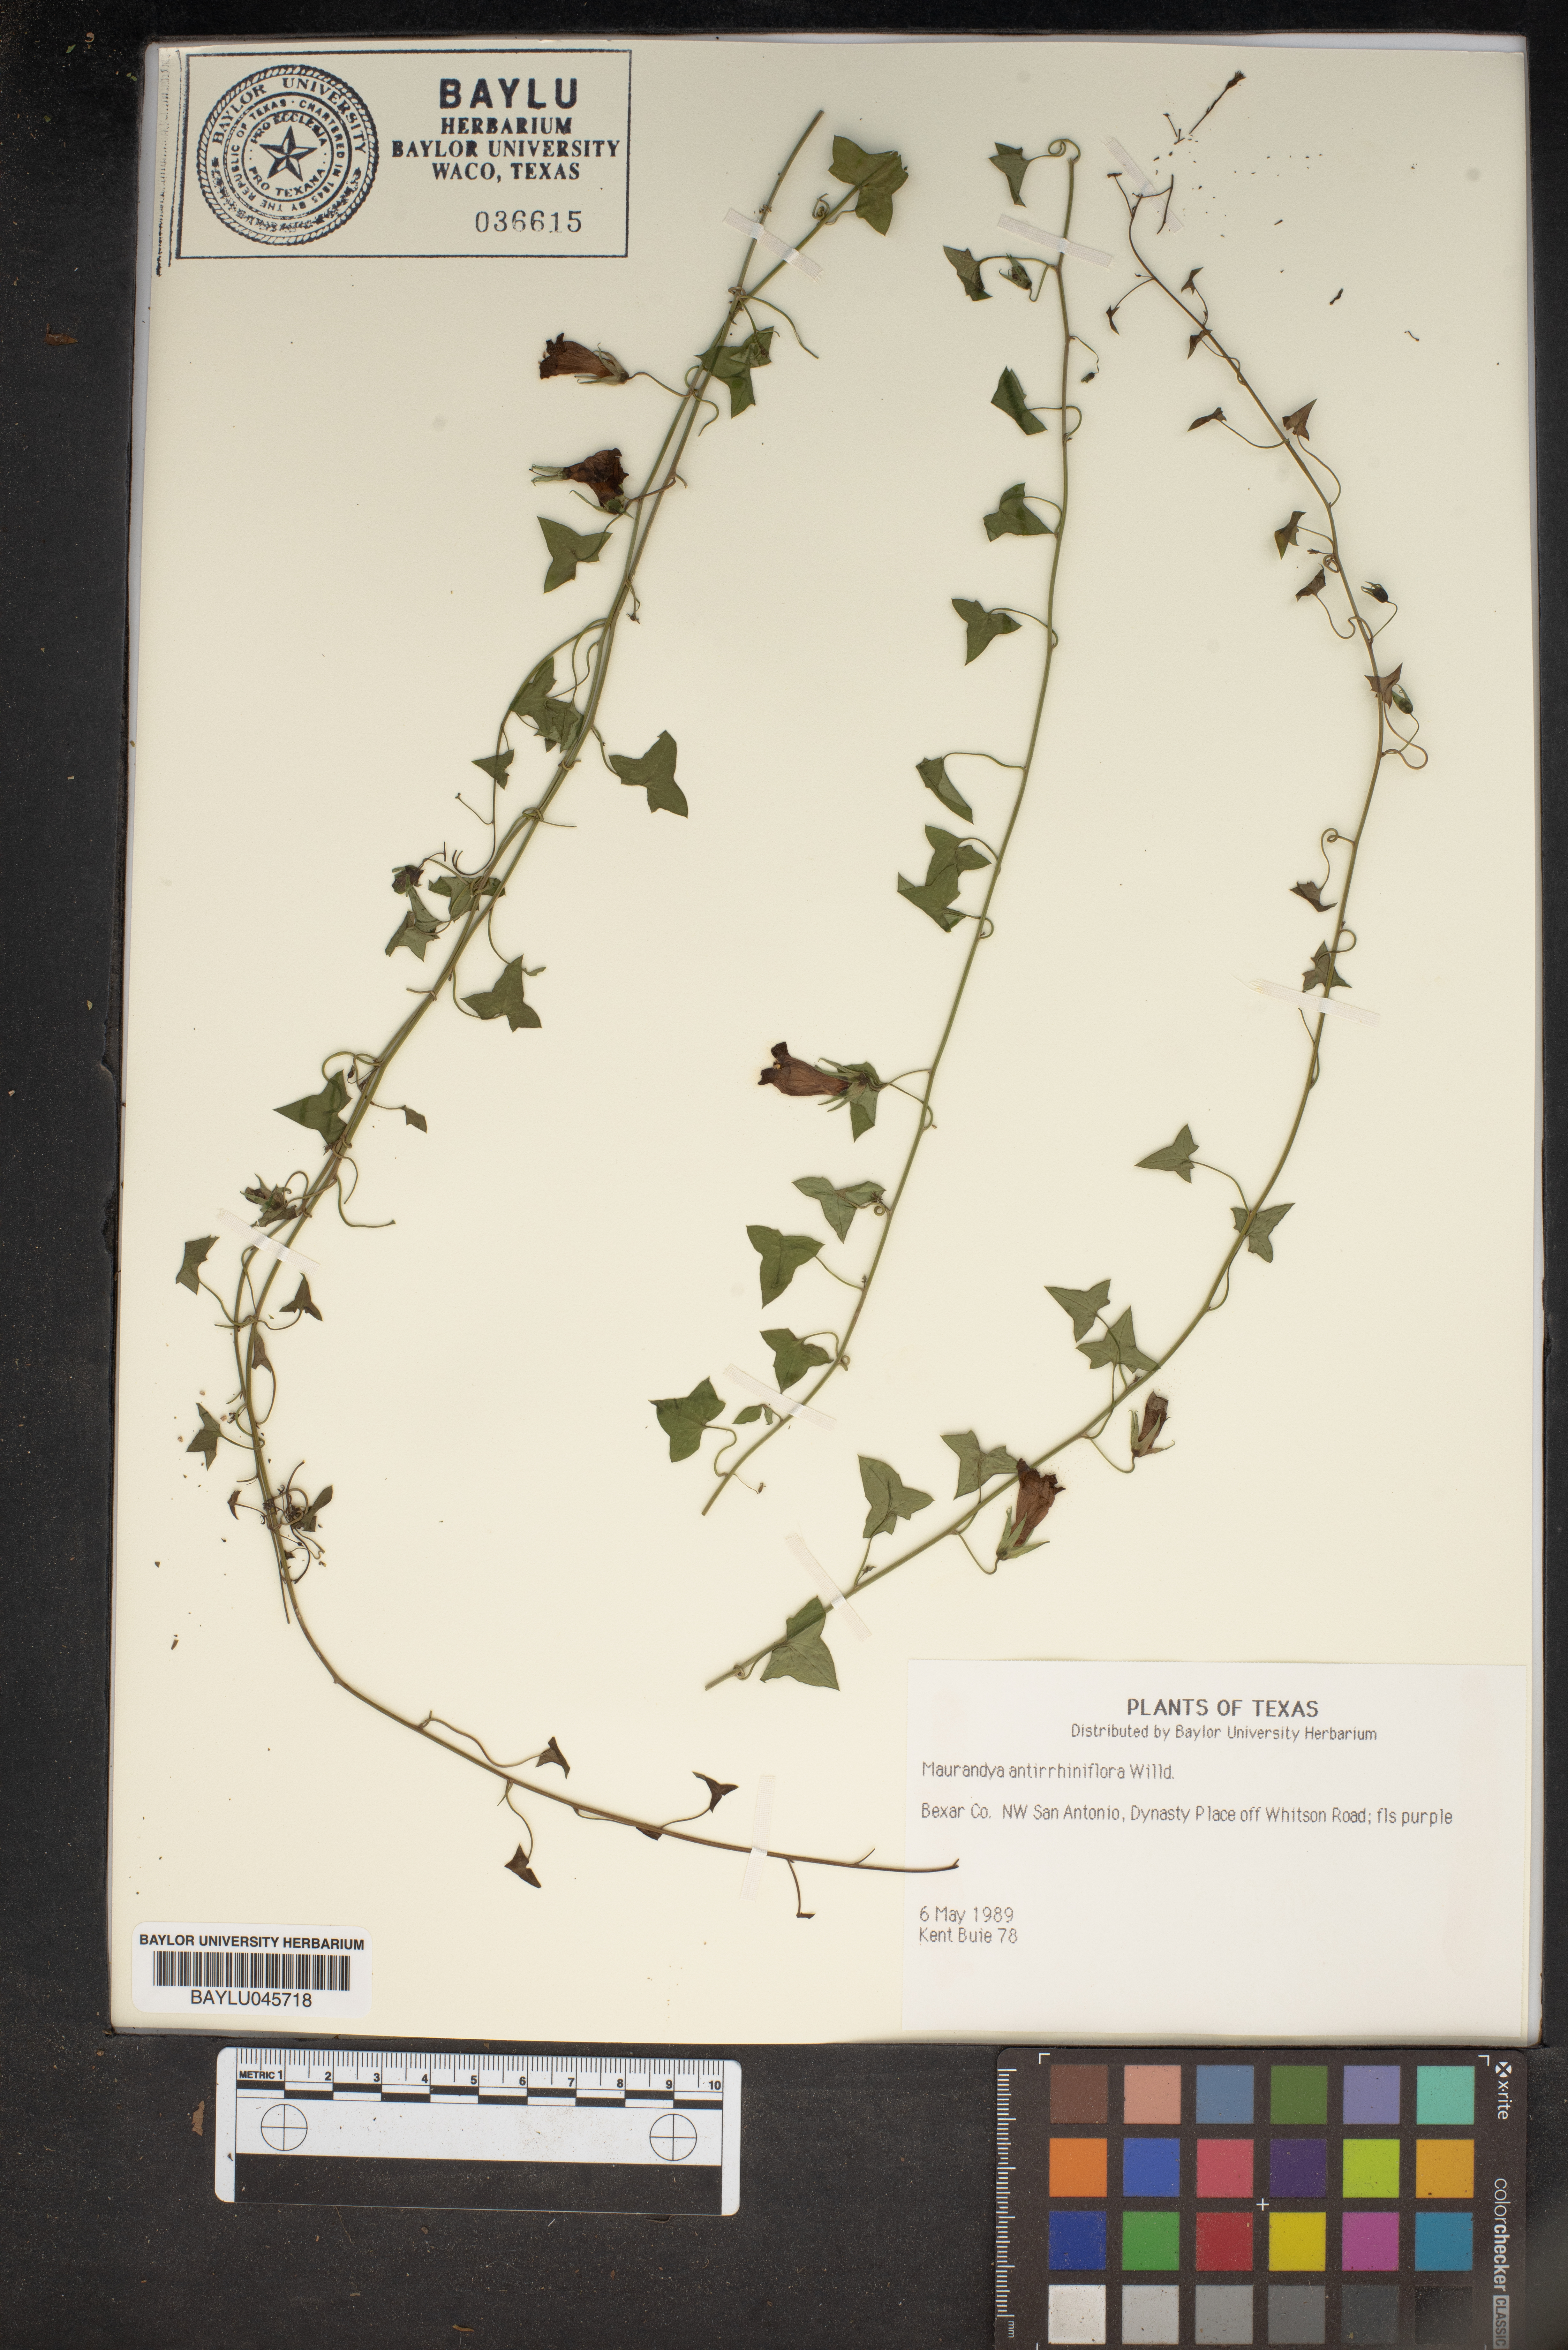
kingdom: Plantae
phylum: Tracheophyta
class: Magnoliopsida
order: Lamiales
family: Plantaginaceae
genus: Maurandella
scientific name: Maurandella antirrhiniflora
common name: Violet twining-snapdragon
